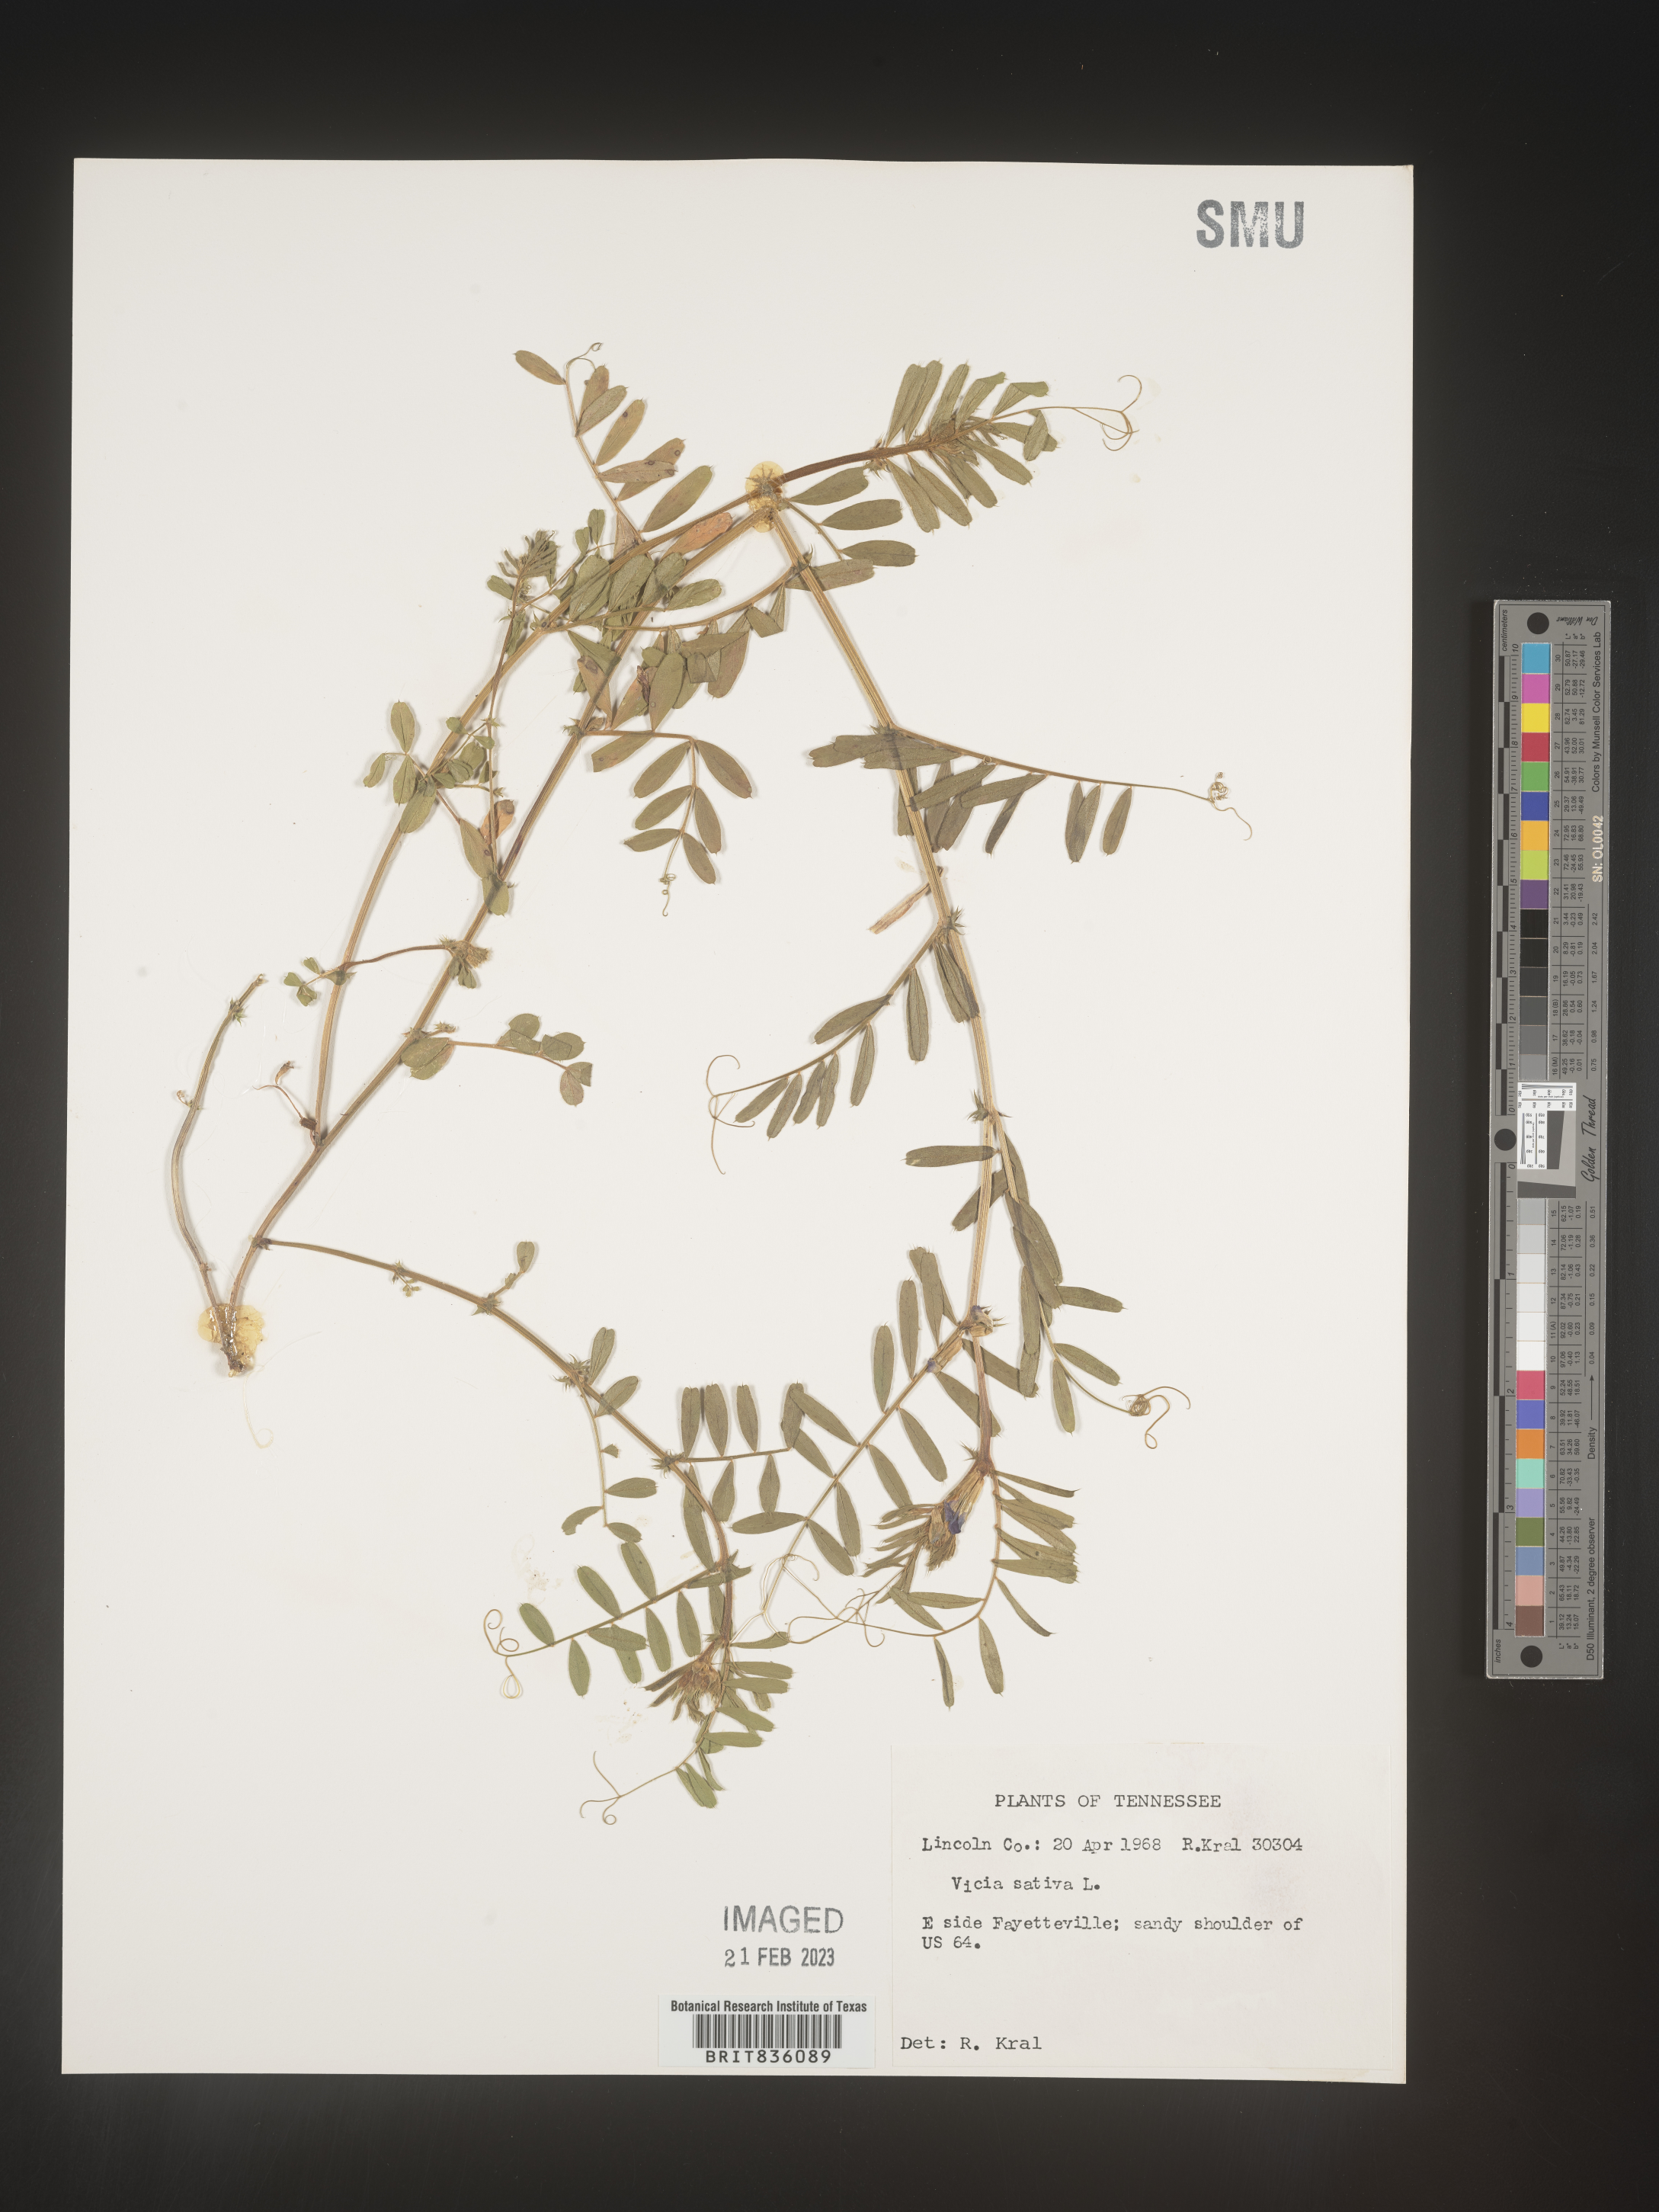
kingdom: Plantae
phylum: Tracheophyta
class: Magnoliopsida
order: Fabales
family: Fabaceae
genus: Vicia
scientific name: Vicia sativa
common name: Garden vetch
